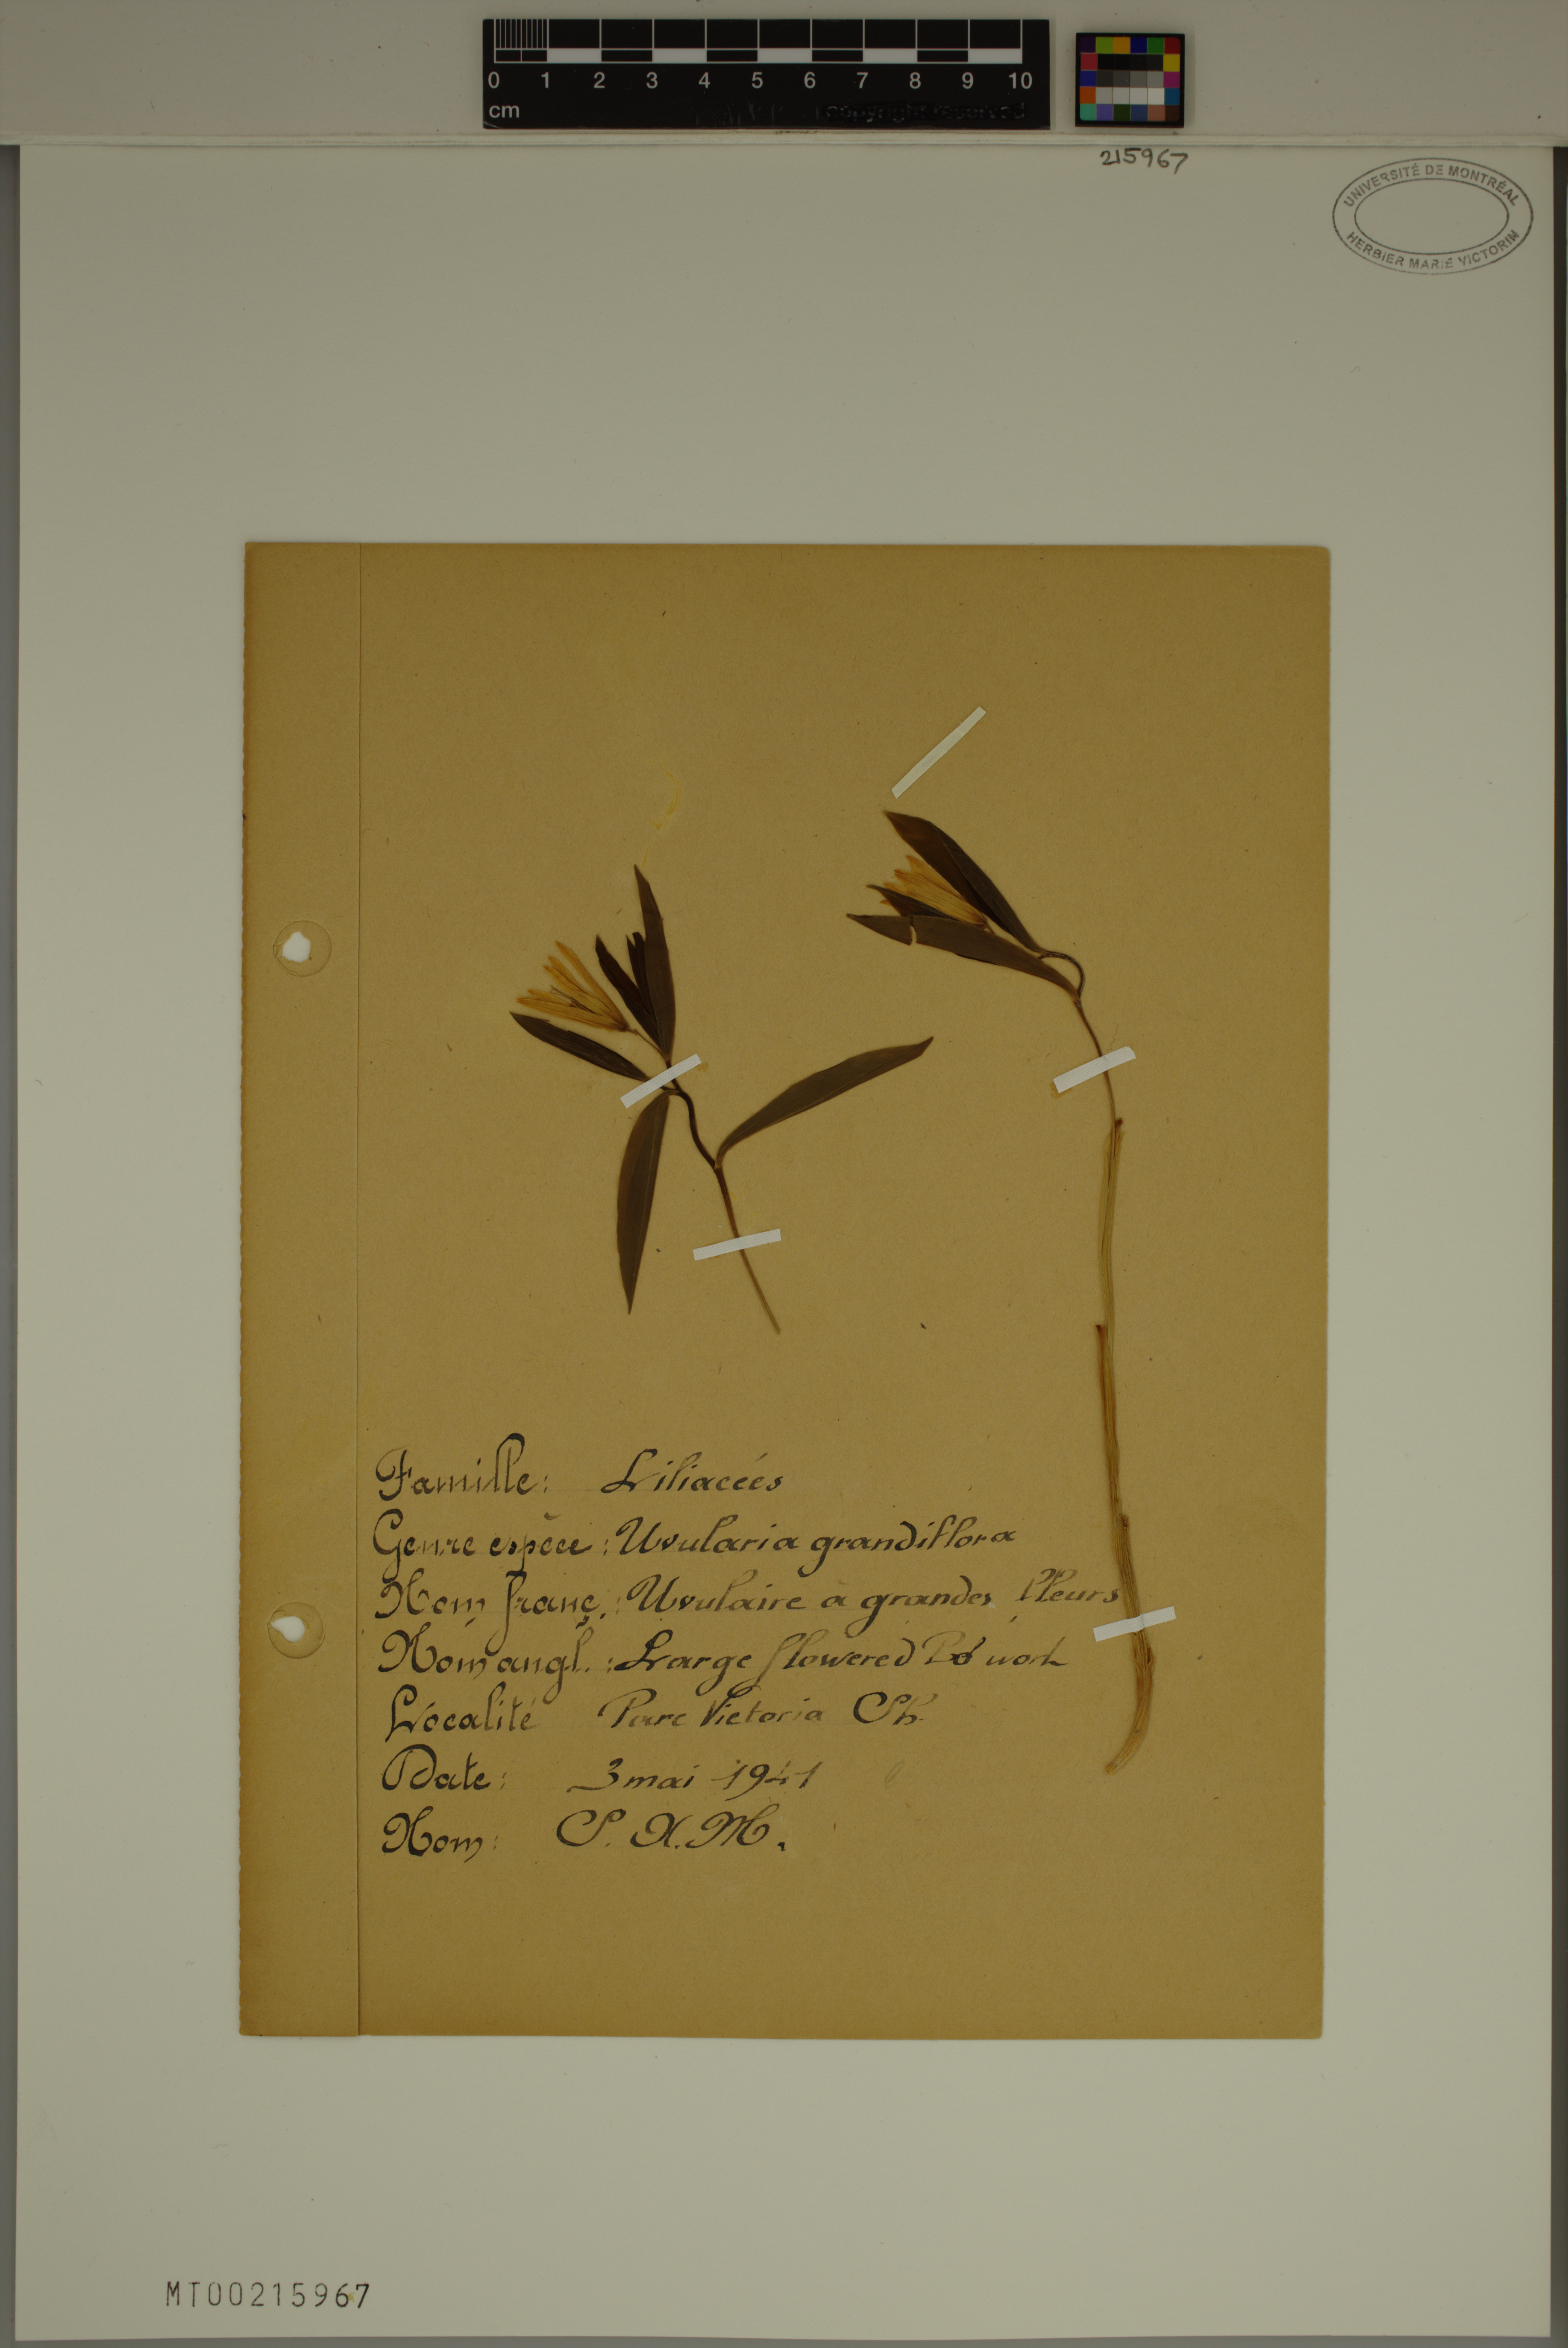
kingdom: Plantae
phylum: Tracheophyta
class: Liliopsida
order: Liliales
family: Colchicaceae
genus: Uvularia
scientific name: Uvularia grandiflora
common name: Bellwort
